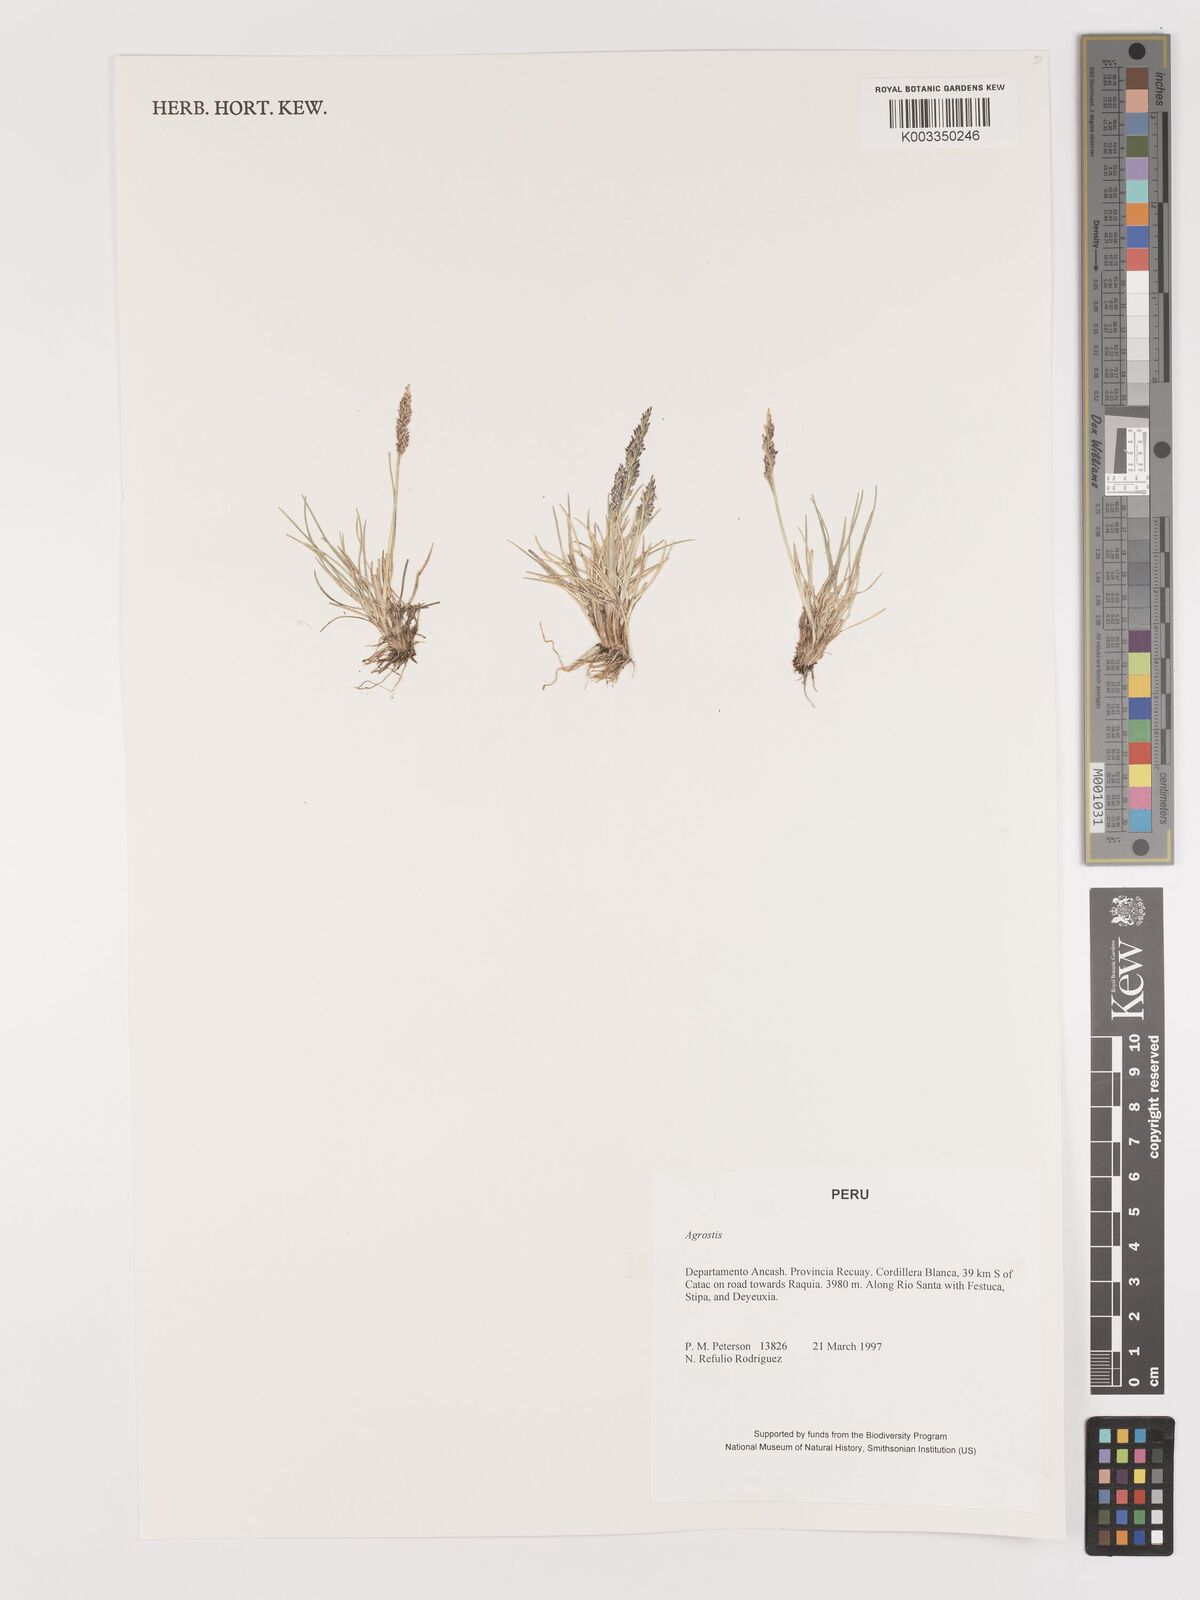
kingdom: Plantae
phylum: Tracheophyta
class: Liliopsida
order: Poales
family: Poaceae
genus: Agrostis
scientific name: Agrostis
